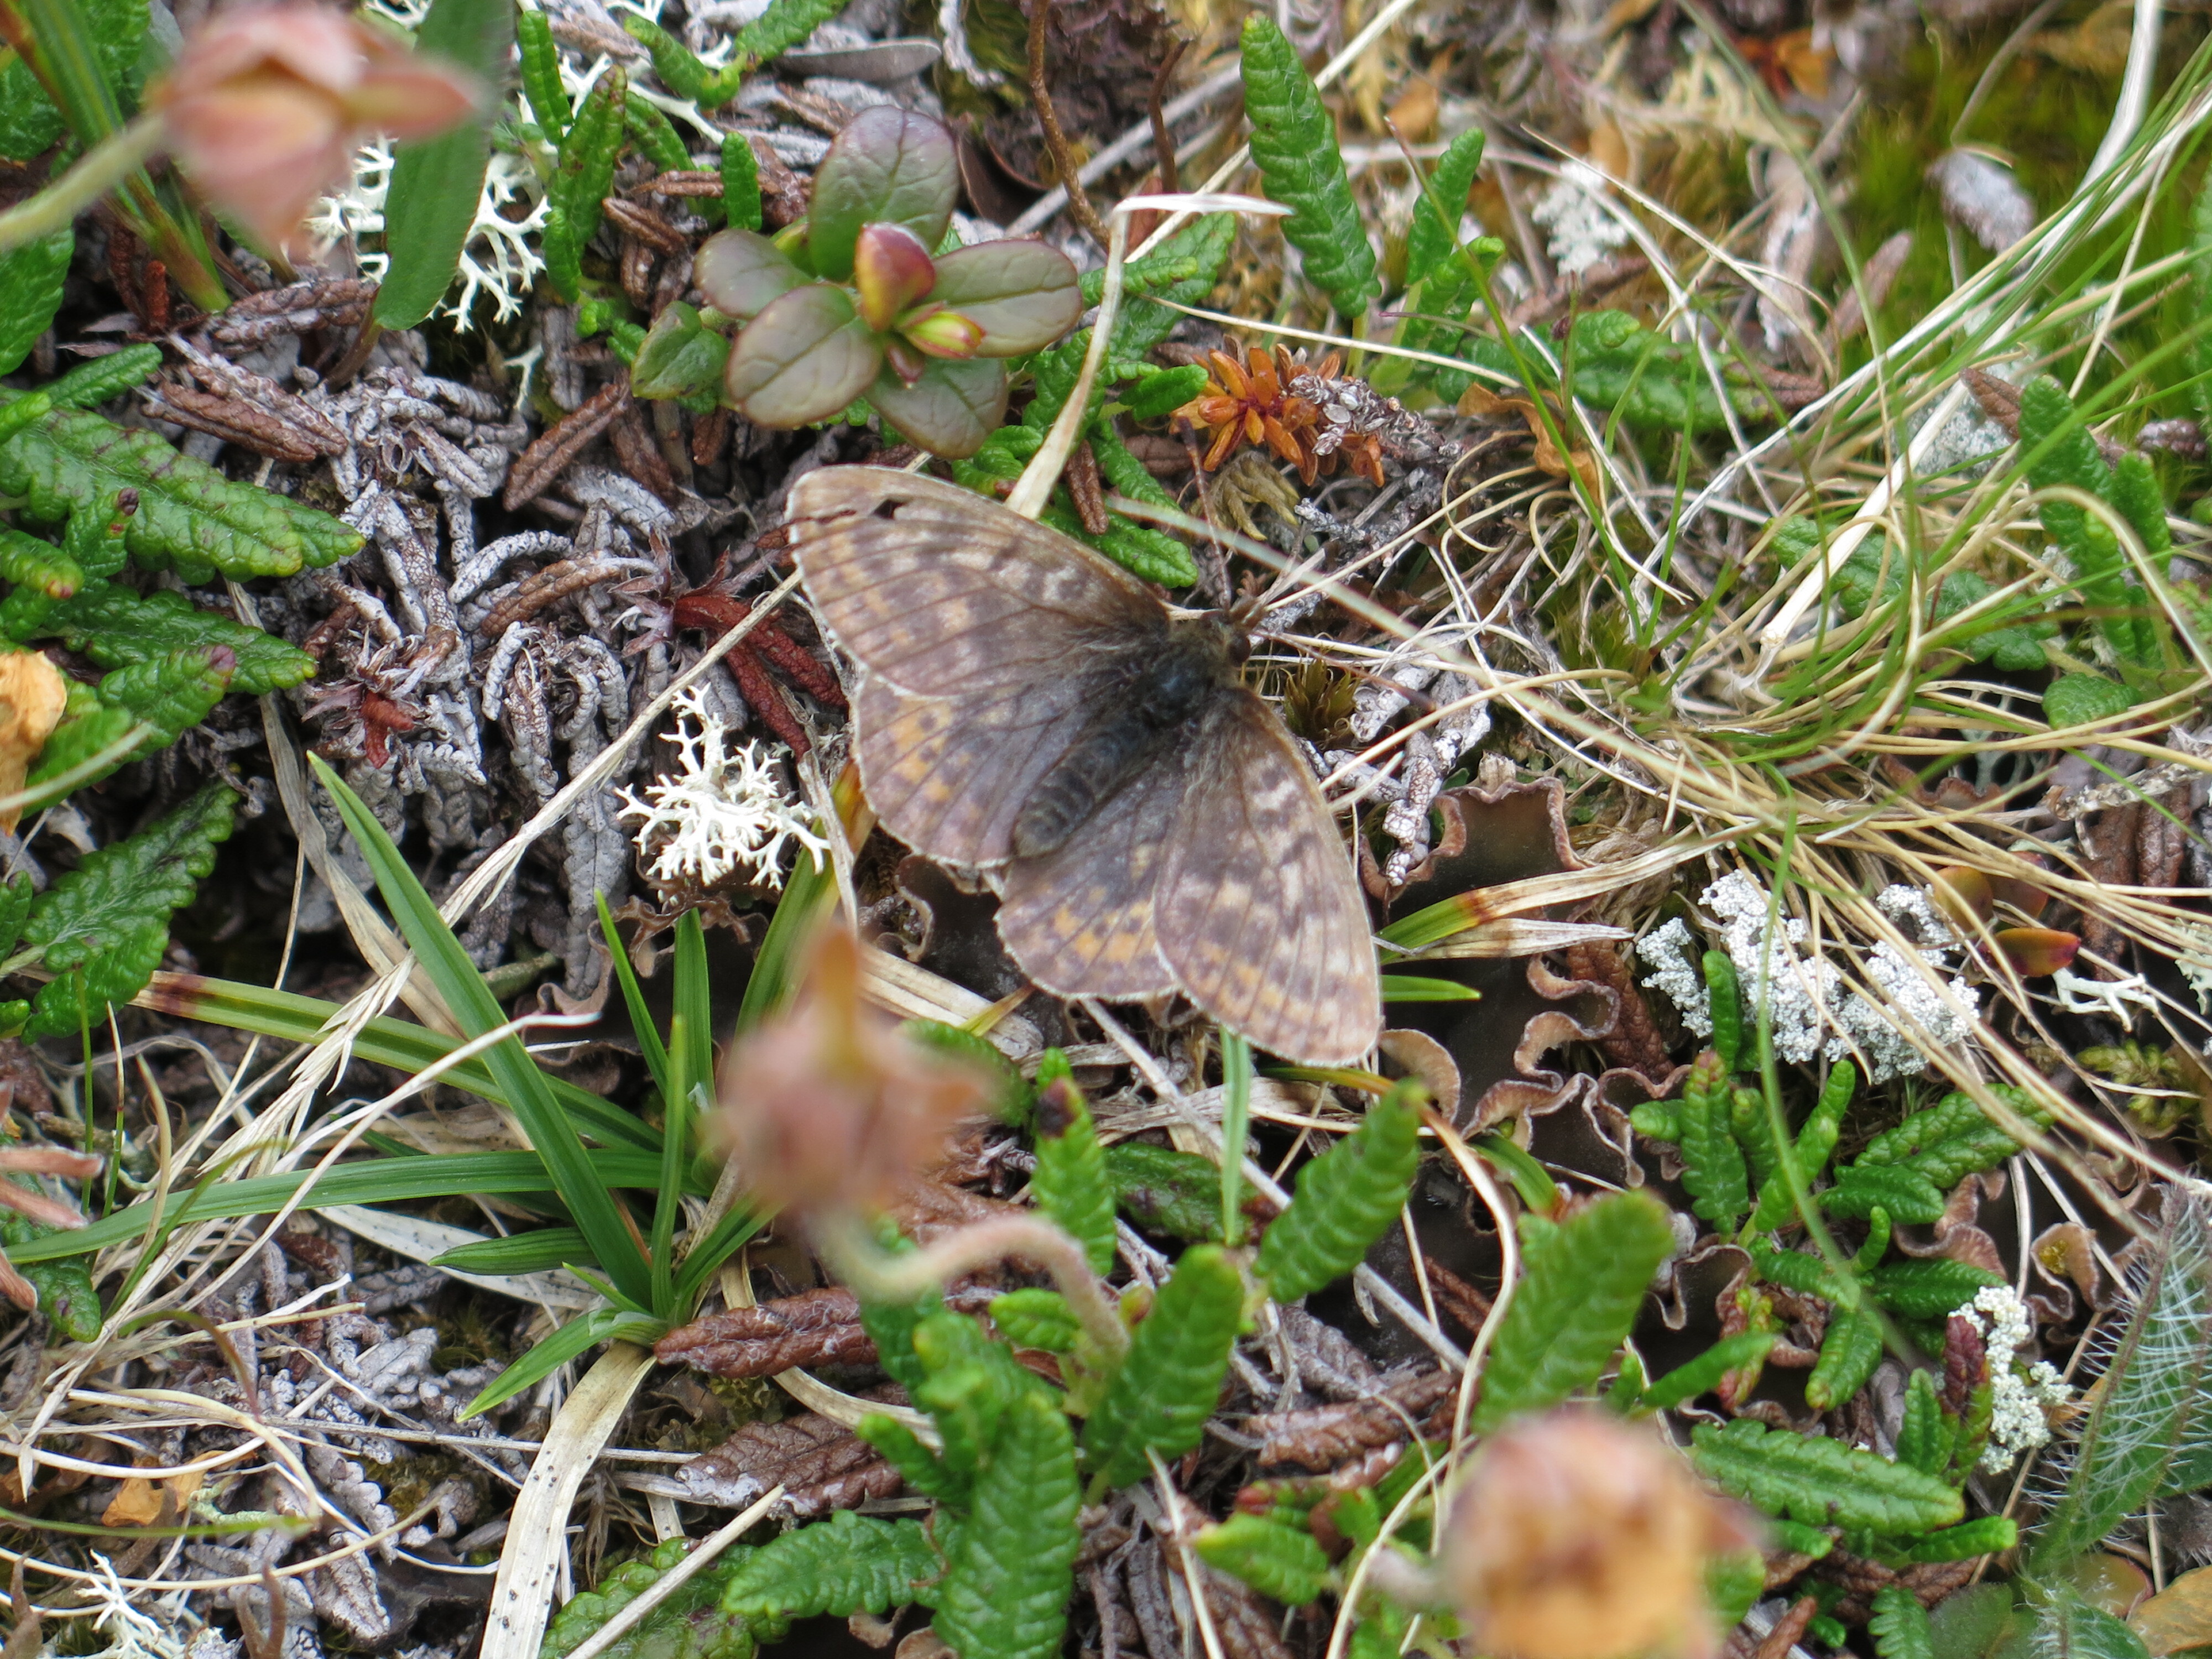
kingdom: Animalia
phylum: Arthropoda
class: Insecta
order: Lepidoptera
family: Nymphalidae
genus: Clossiana
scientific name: Clossiana improba
